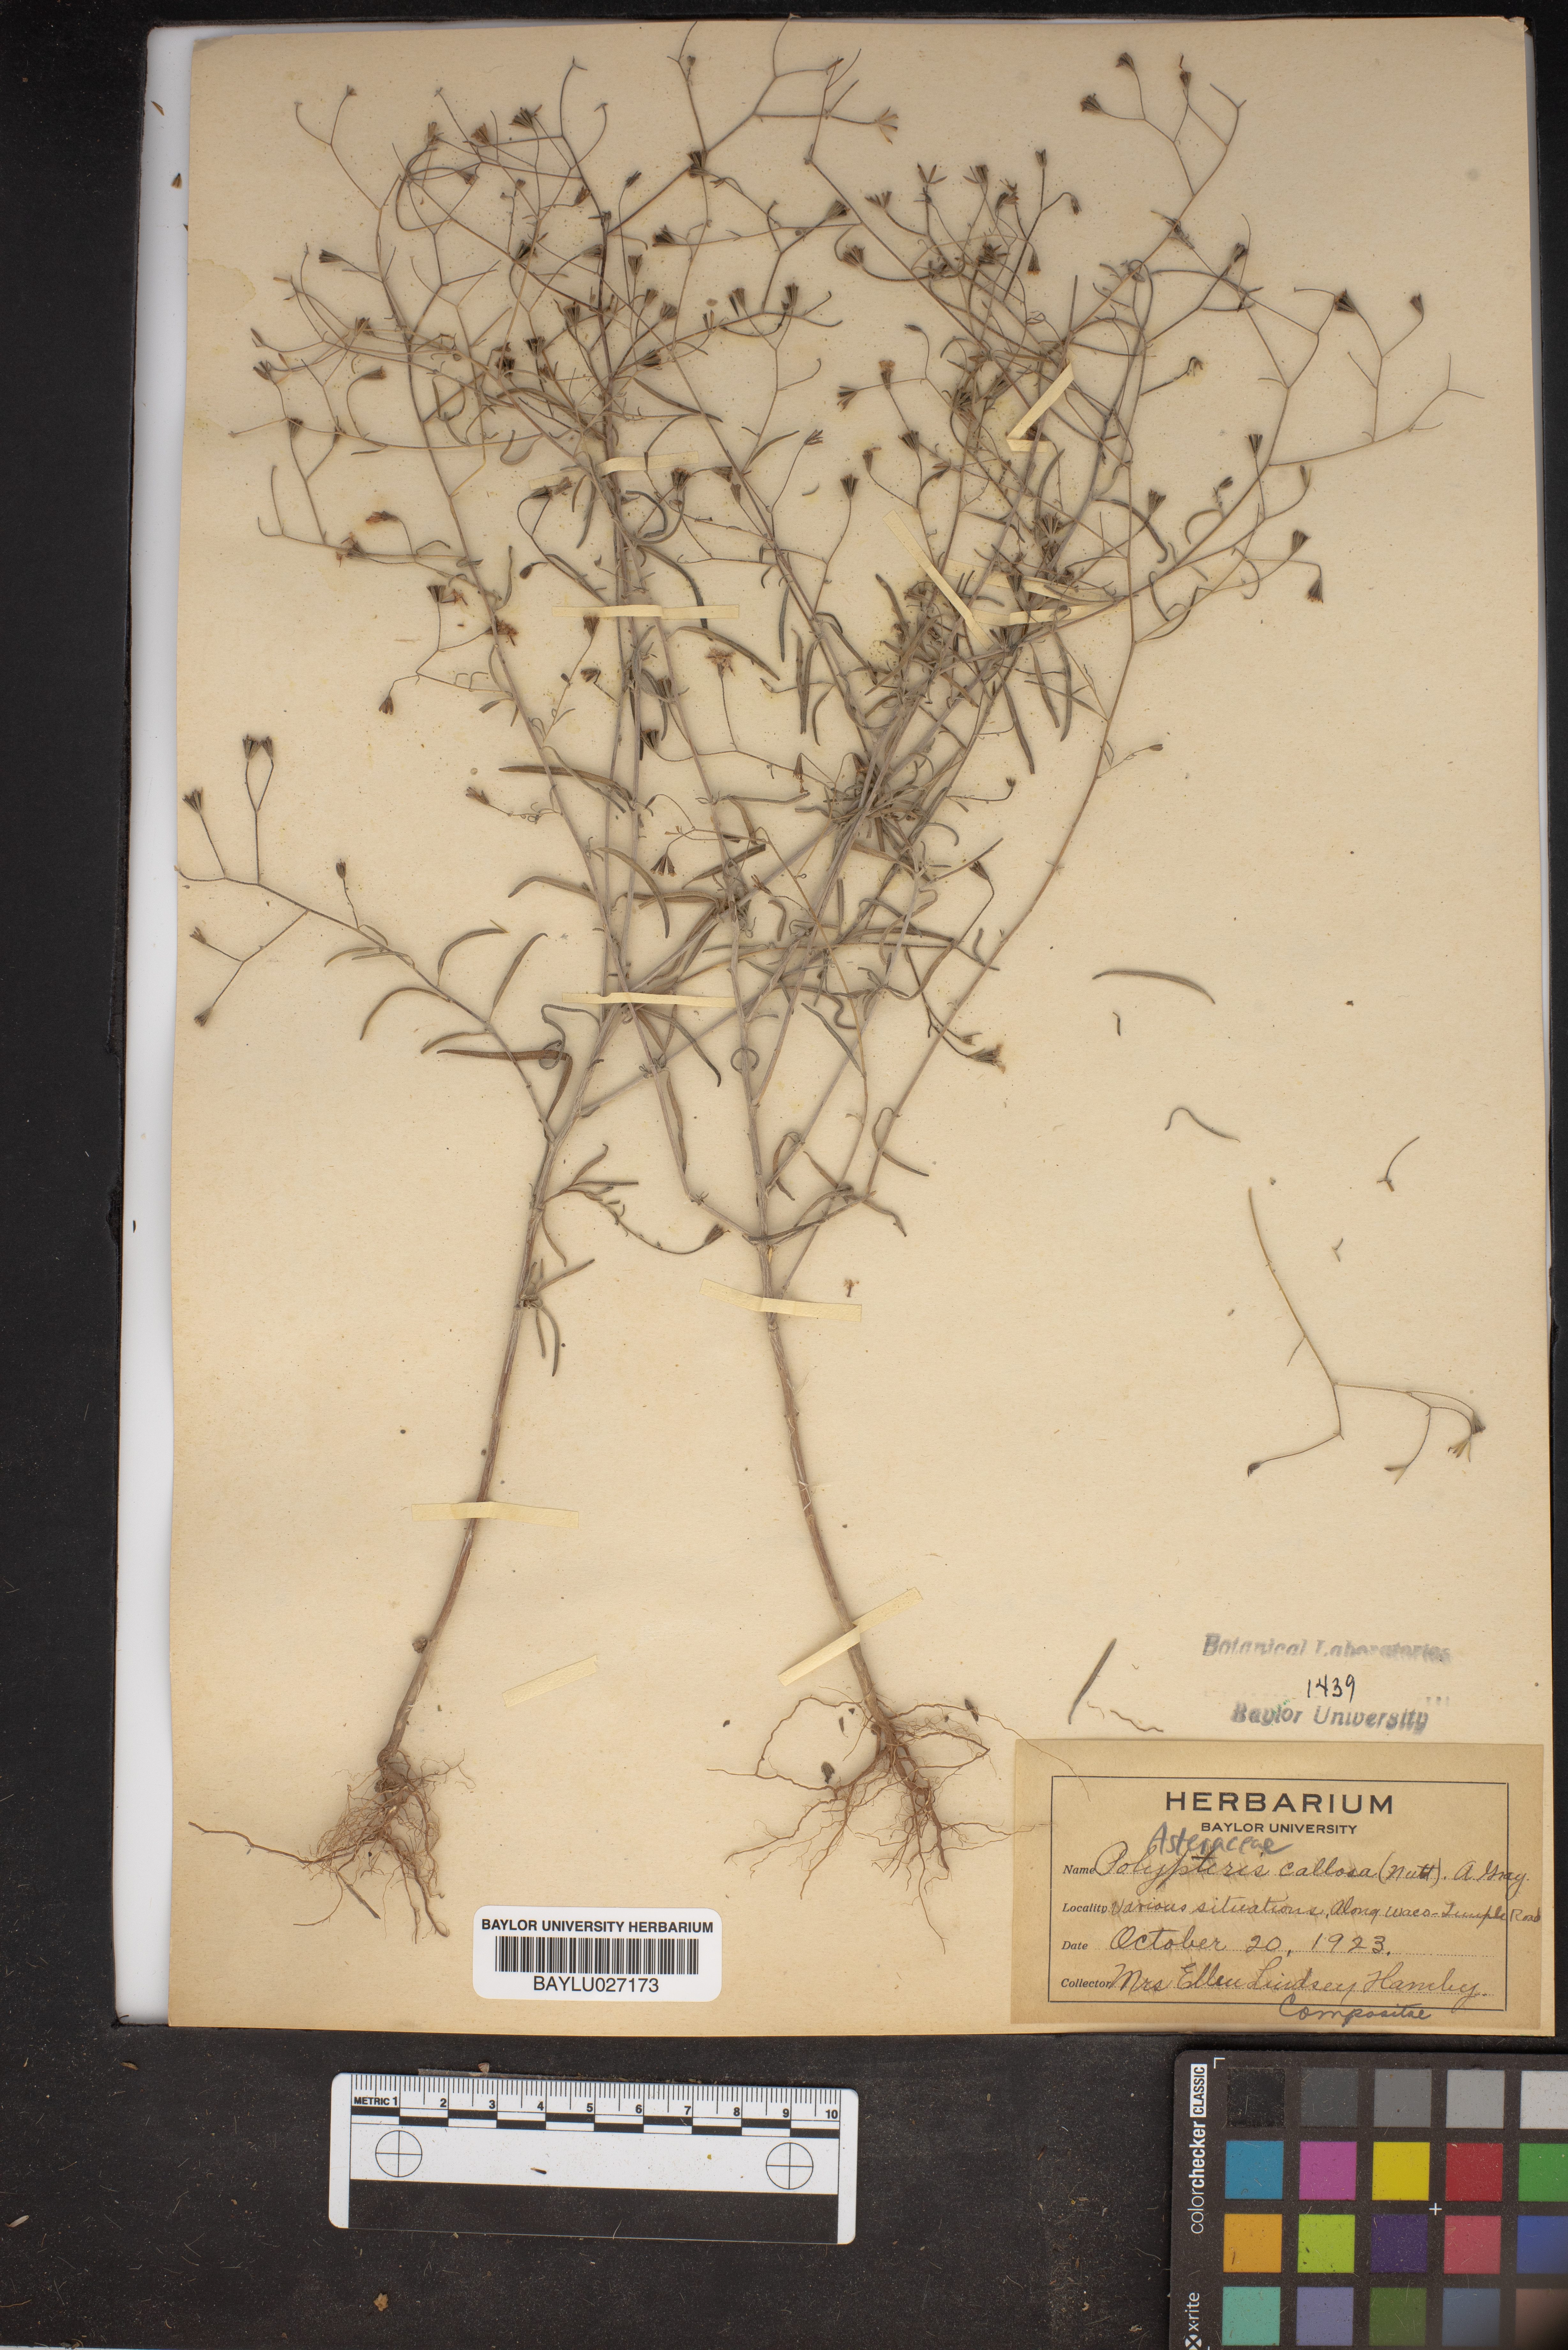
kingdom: Plantae
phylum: Tracheophyta
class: Magnoliopsida
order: Asterales
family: Asteraceae
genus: Palafoxia
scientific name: Palafoxia callosa
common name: Small palafox
